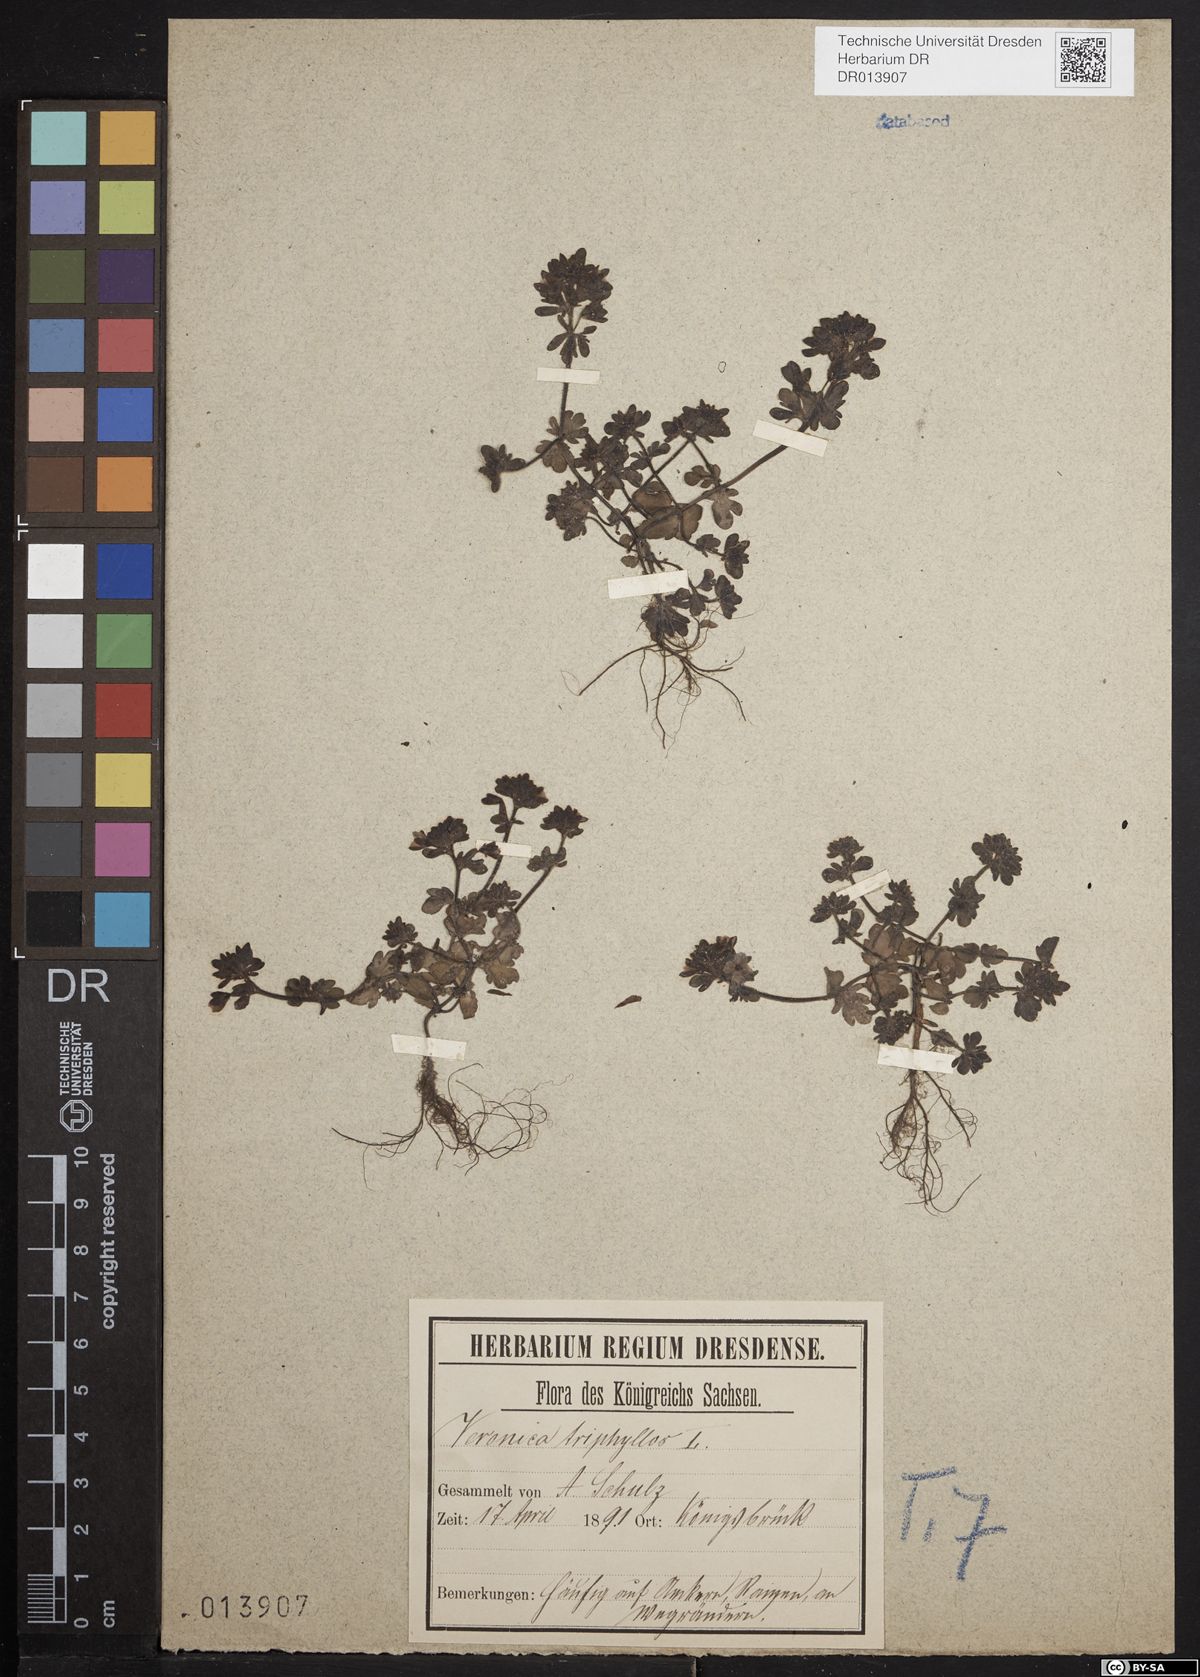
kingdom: Plantae
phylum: Tracheophyta
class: Magnoliopsida
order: Lamiales
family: Plantaginaceae
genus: Veronica
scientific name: Veronica triphyllos
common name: Fingered speedwell
